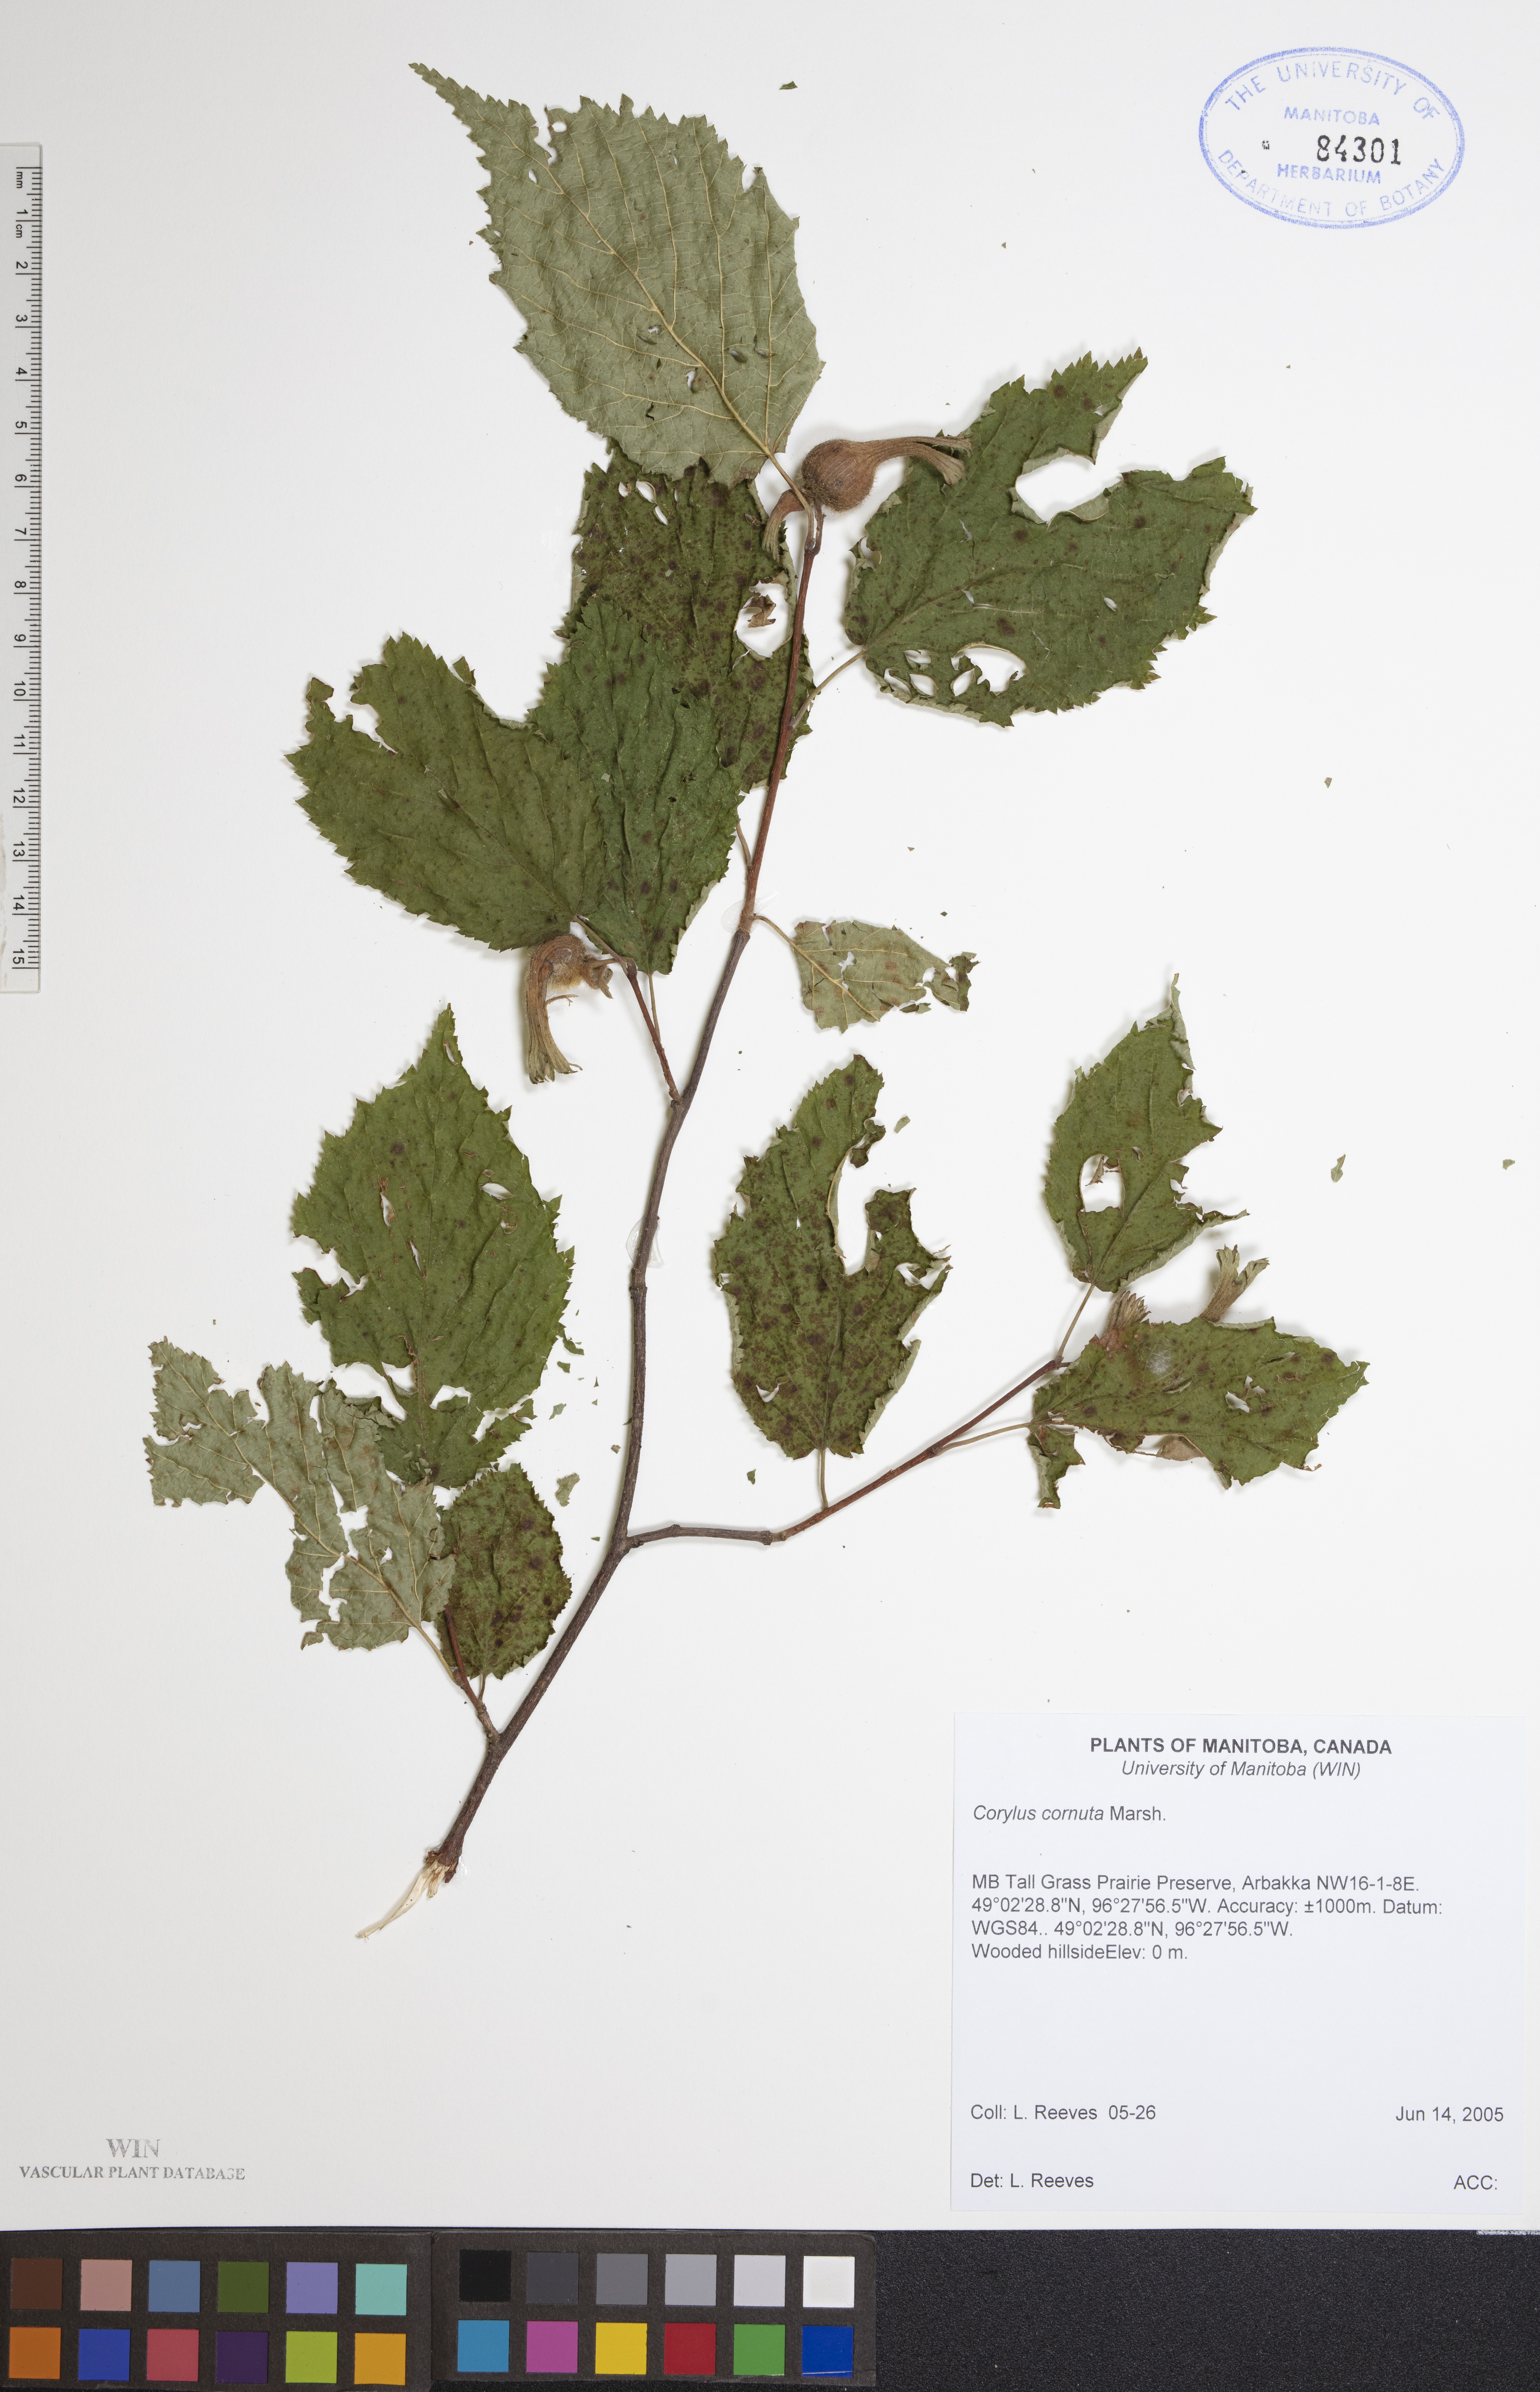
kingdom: Plantae
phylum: Tracheophyta
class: Magnoliopsida
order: Fagales
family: Betulaceae
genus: Corylus
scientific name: Corylus cornuta
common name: Beaked hazel
